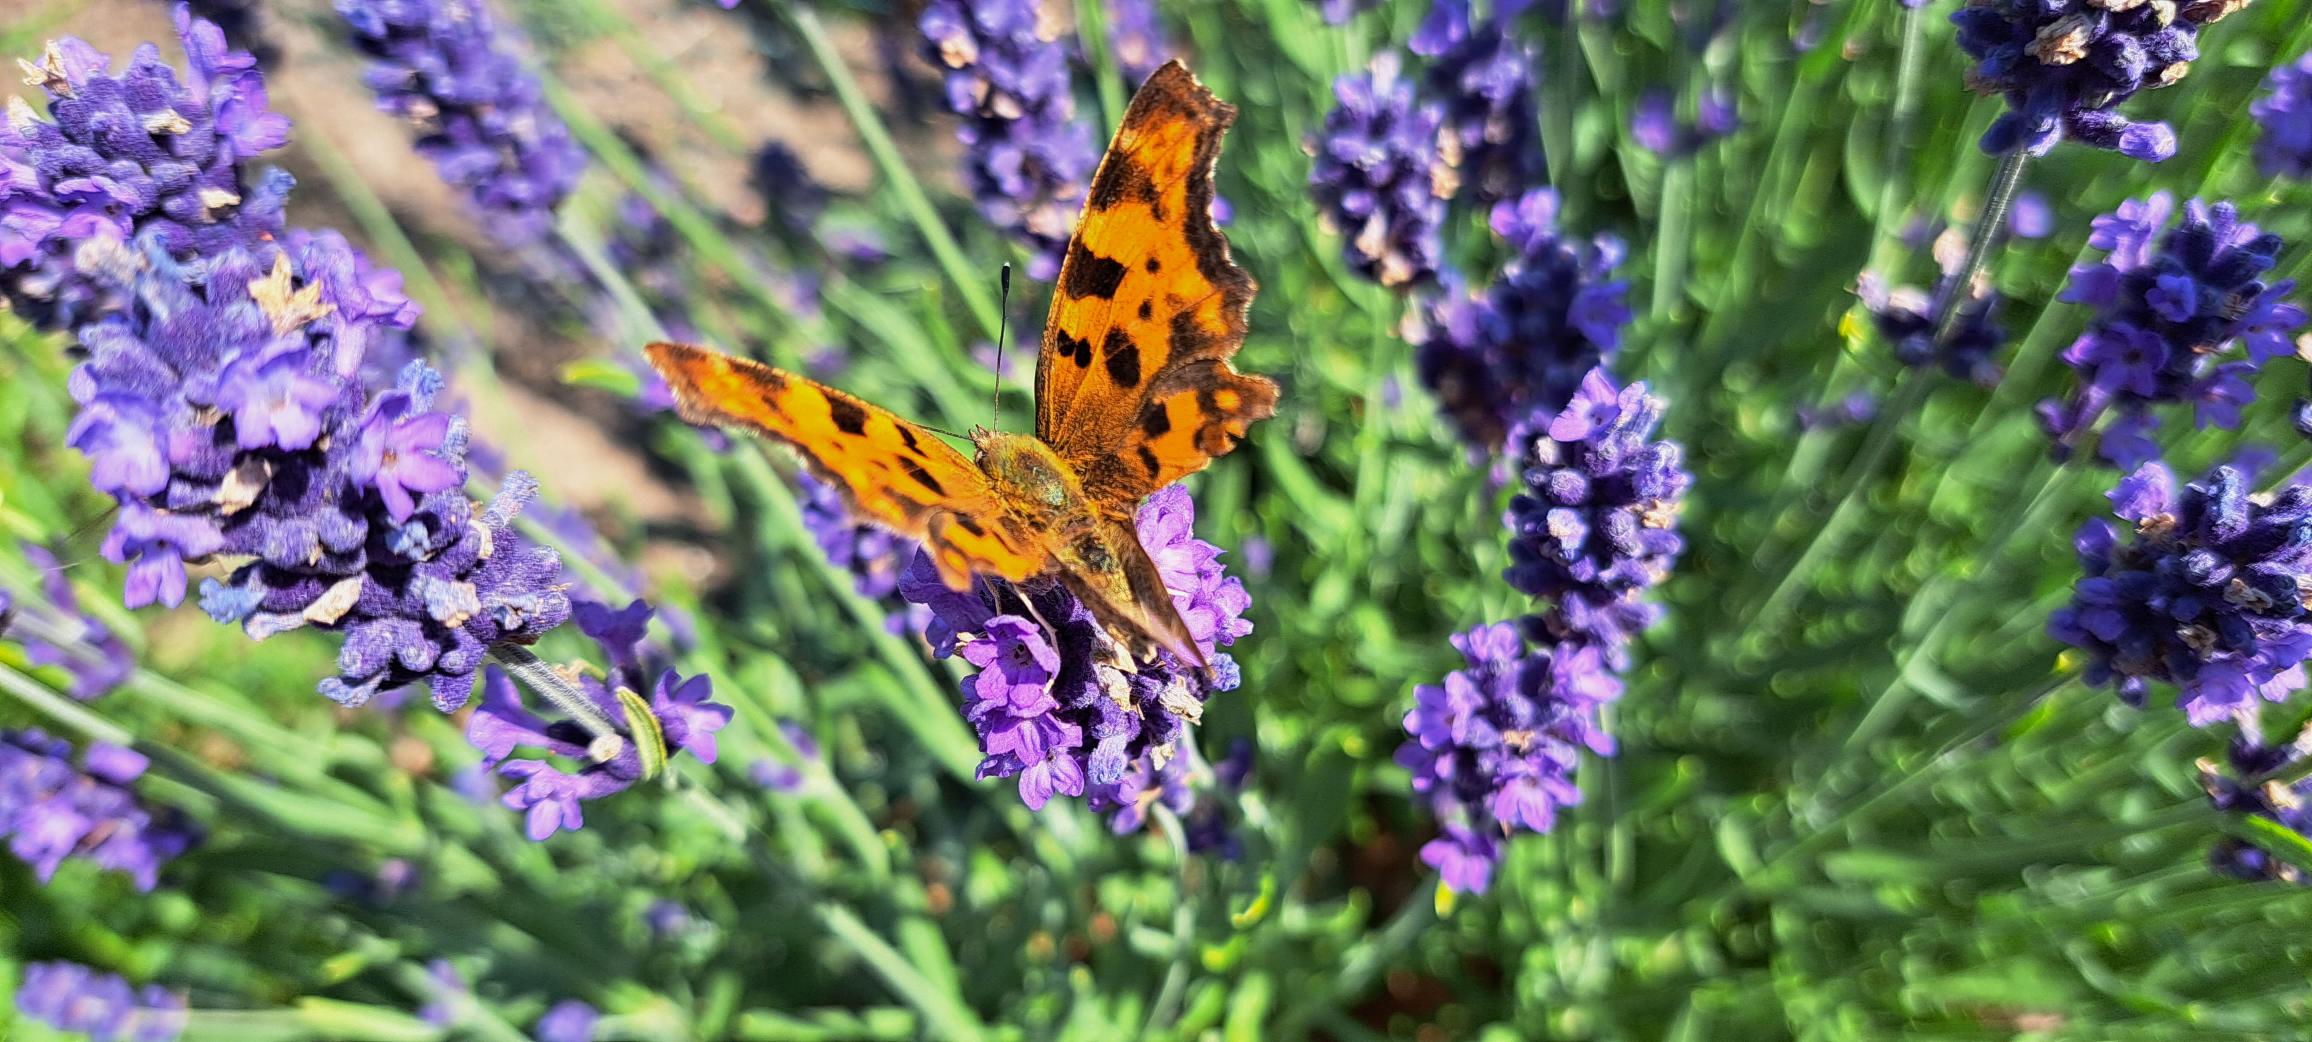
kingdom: Animalia
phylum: Arthropoda
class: Insecta
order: Lepidoptera
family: Nymphalidae
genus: Polygonia
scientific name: Polygonia c-album
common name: Det hvide C
